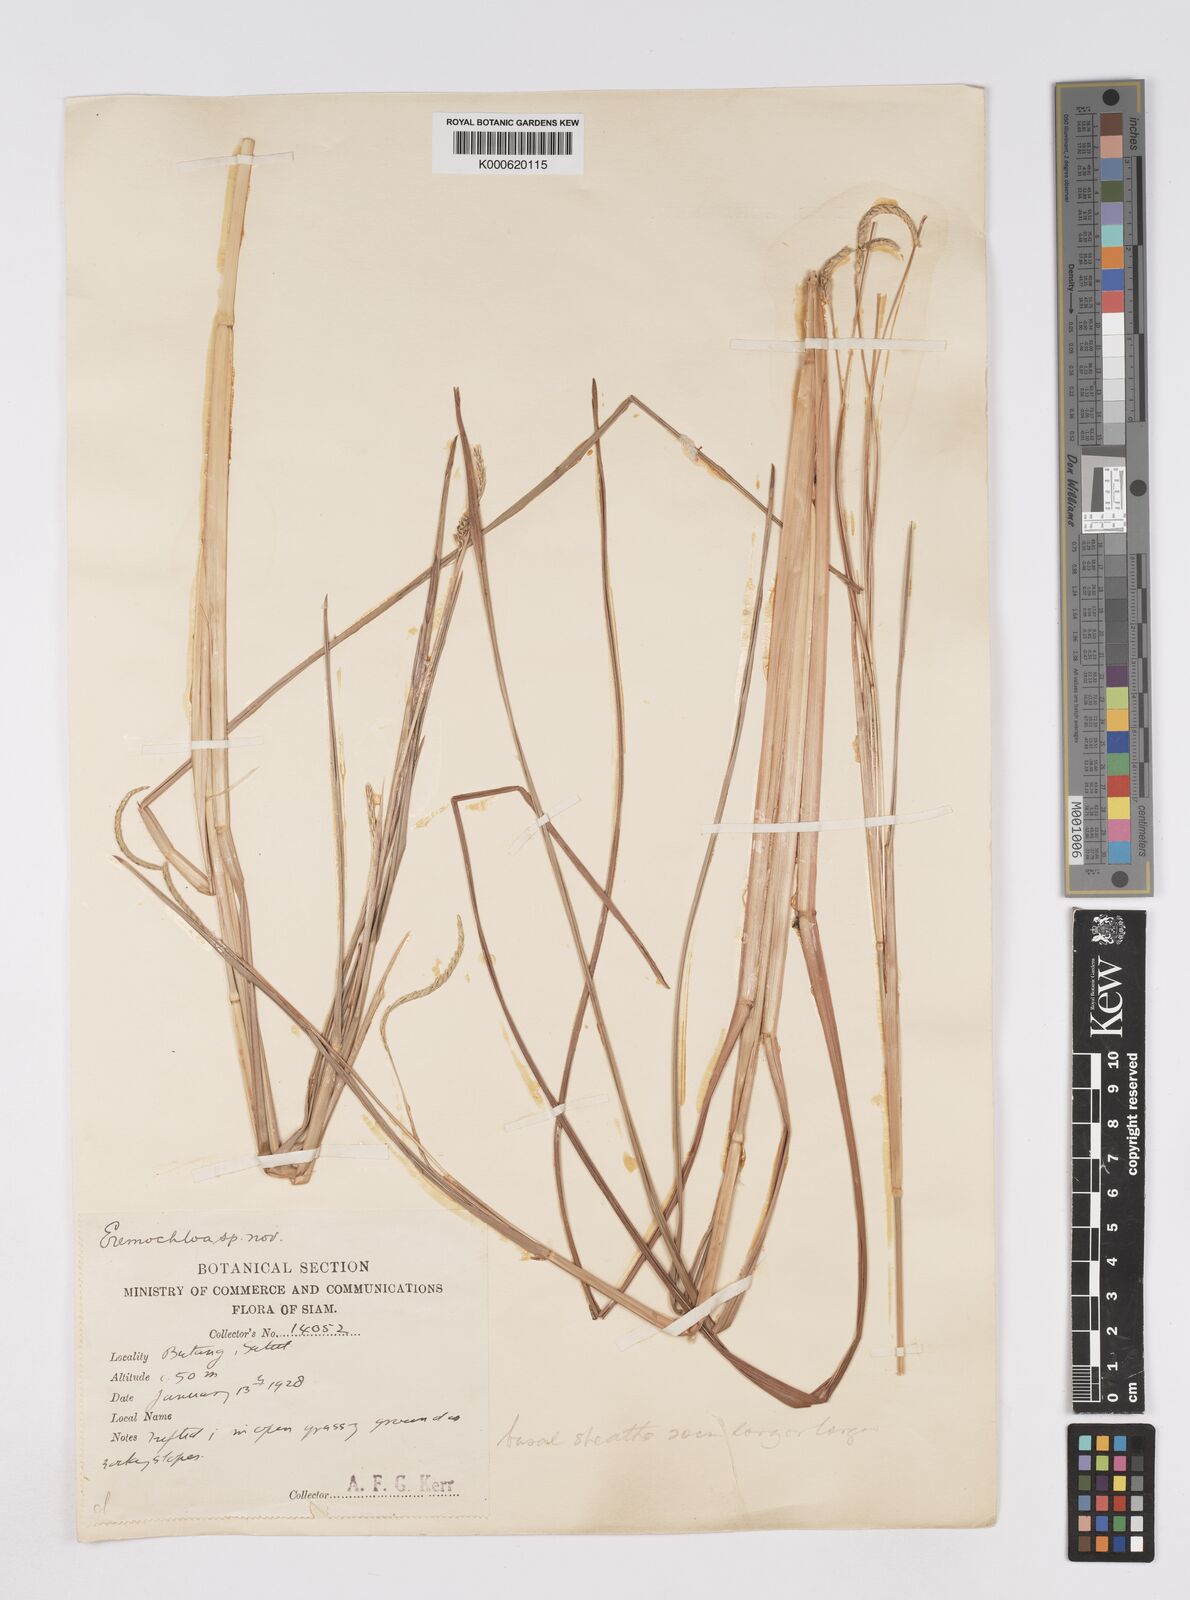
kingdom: Plantae
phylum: Tracheophyta
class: Liliopsida
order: Poales
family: Poaceae
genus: Eremochloa
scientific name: Eremochloa ciliaris
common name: Fringed centipede grass
